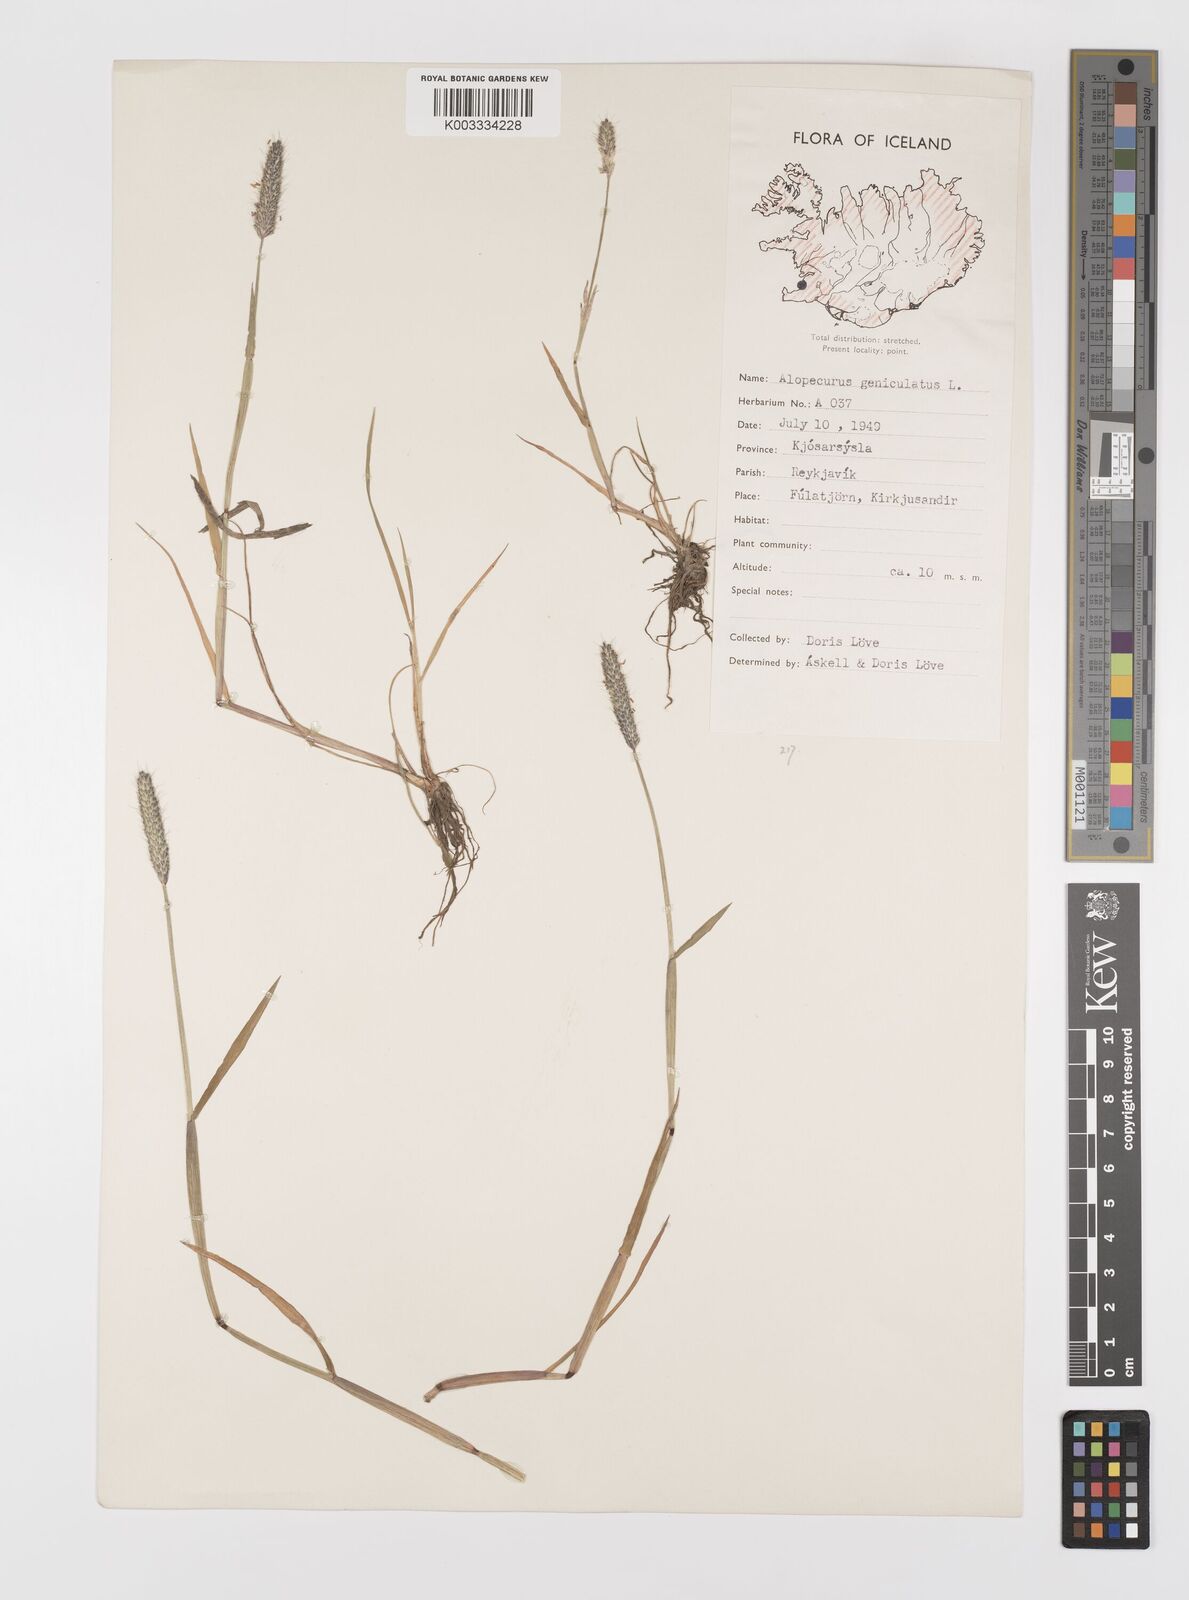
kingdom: Plantae
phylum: Tracheophyta
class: Liliopsida
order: Poales
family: Poaceae
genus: Alopecurus
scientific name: Alopecurus geniculatus
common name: Water foxtail
